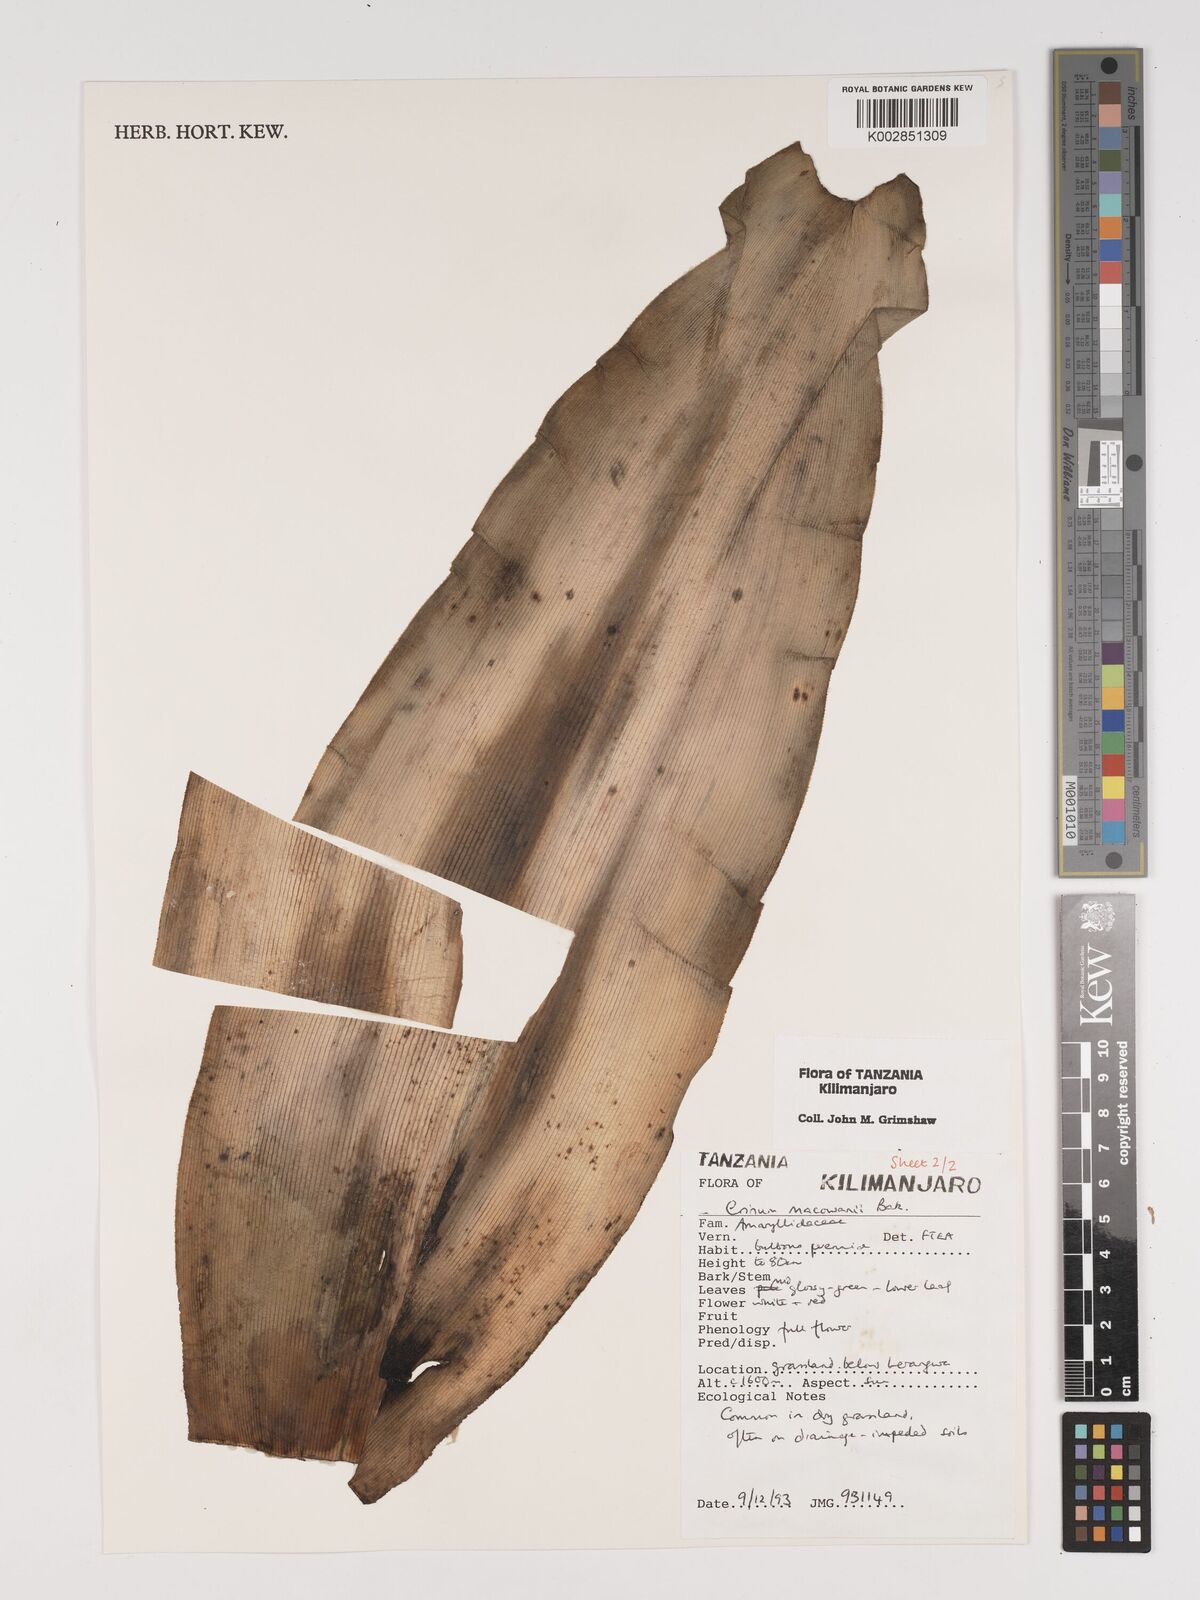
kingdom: Plantae
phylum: Tracheophyta
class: Liliopsida
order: Asparagales
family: Amaryllidaceae
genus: Crinum
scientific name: Crinum macowanii
